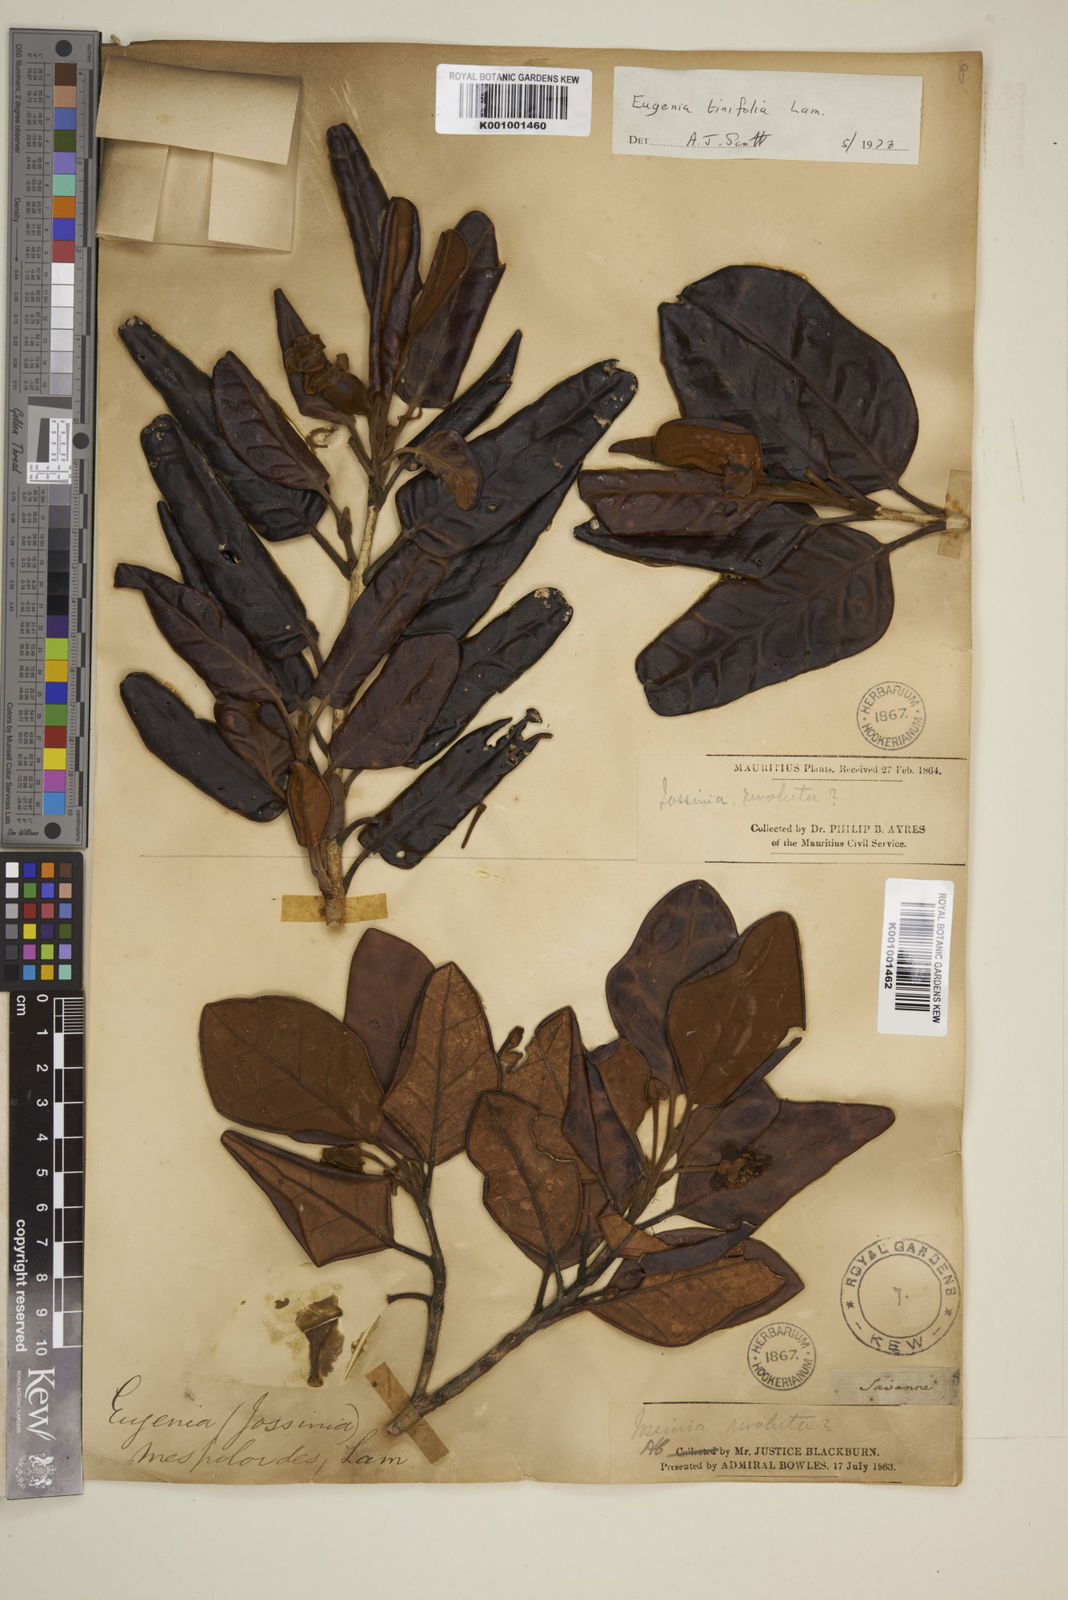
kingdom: Plantae
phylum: Tracheophyta
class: Magnoliopsida
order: Myrtales
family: Myrtaceae
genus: Eugenia
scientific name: Eugenia tinifolia
